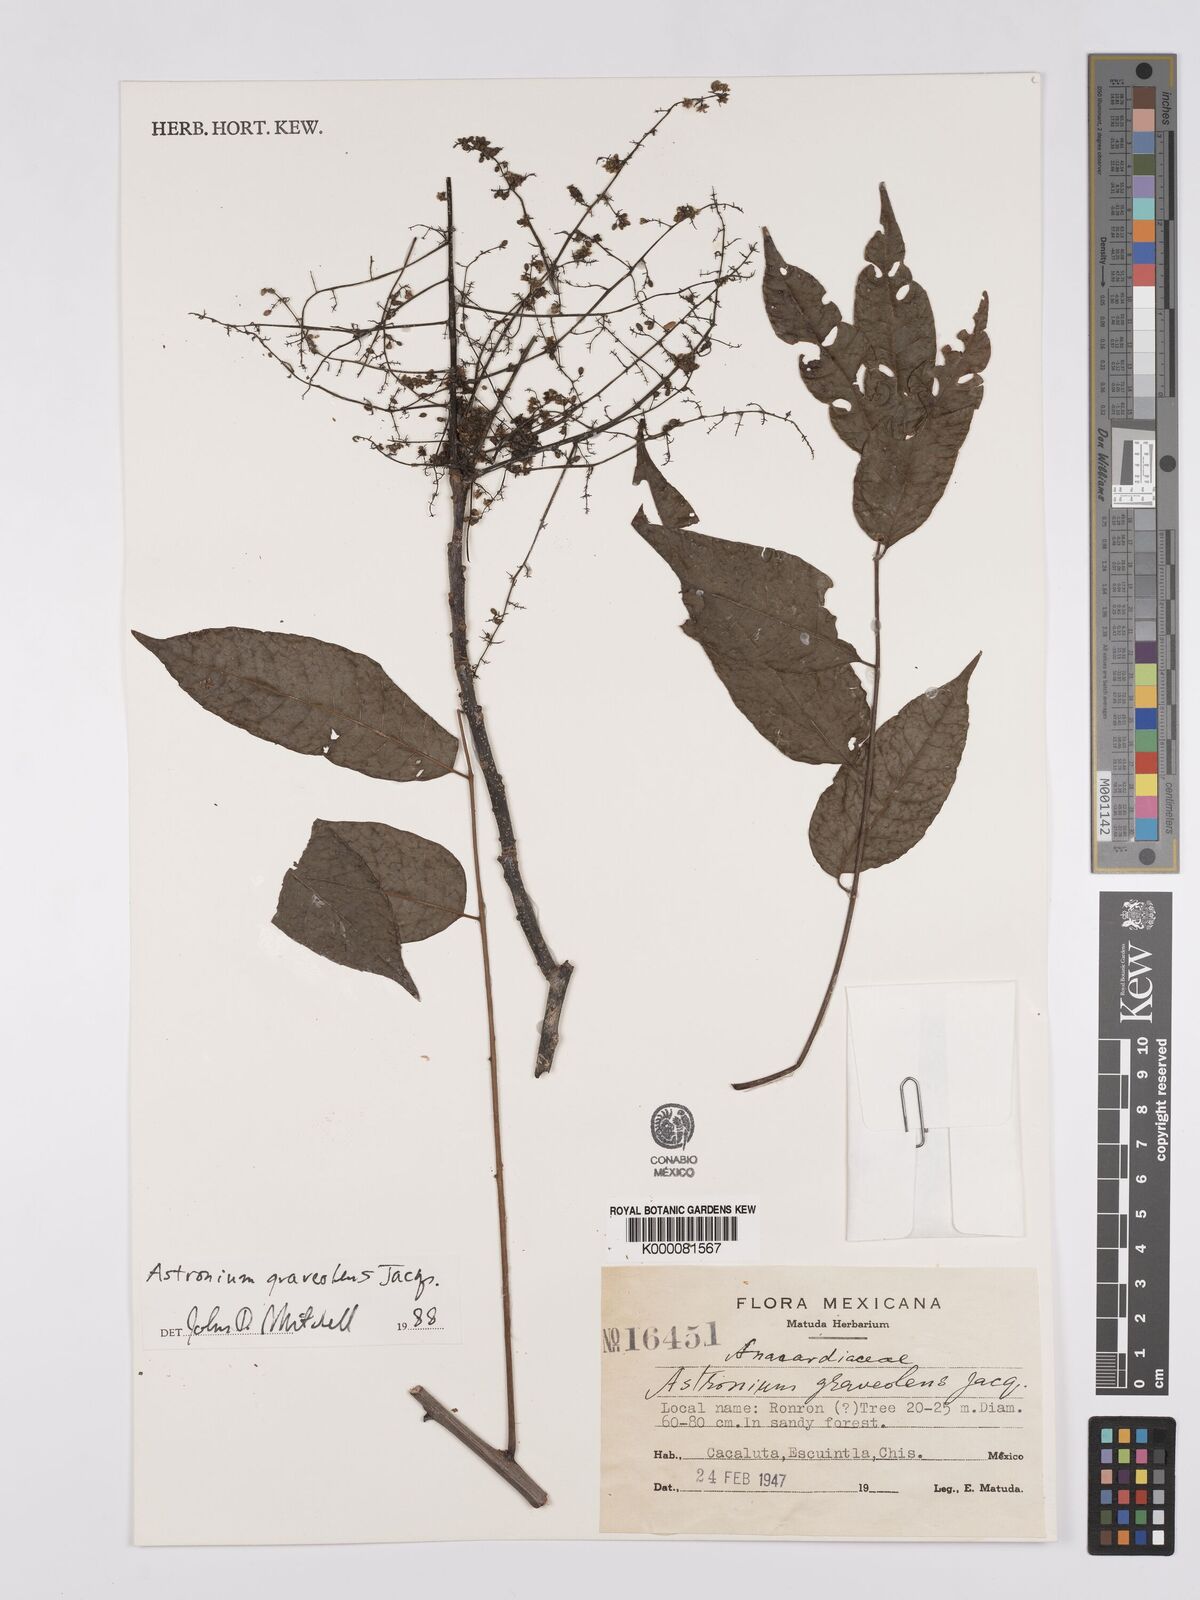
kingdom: Plantae
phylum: Tracheophyta
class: Magnoliopsida
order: Sapindales
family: Anacardiaceae
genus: Astronium
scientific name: Astronium graveolens
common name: Glassywood
